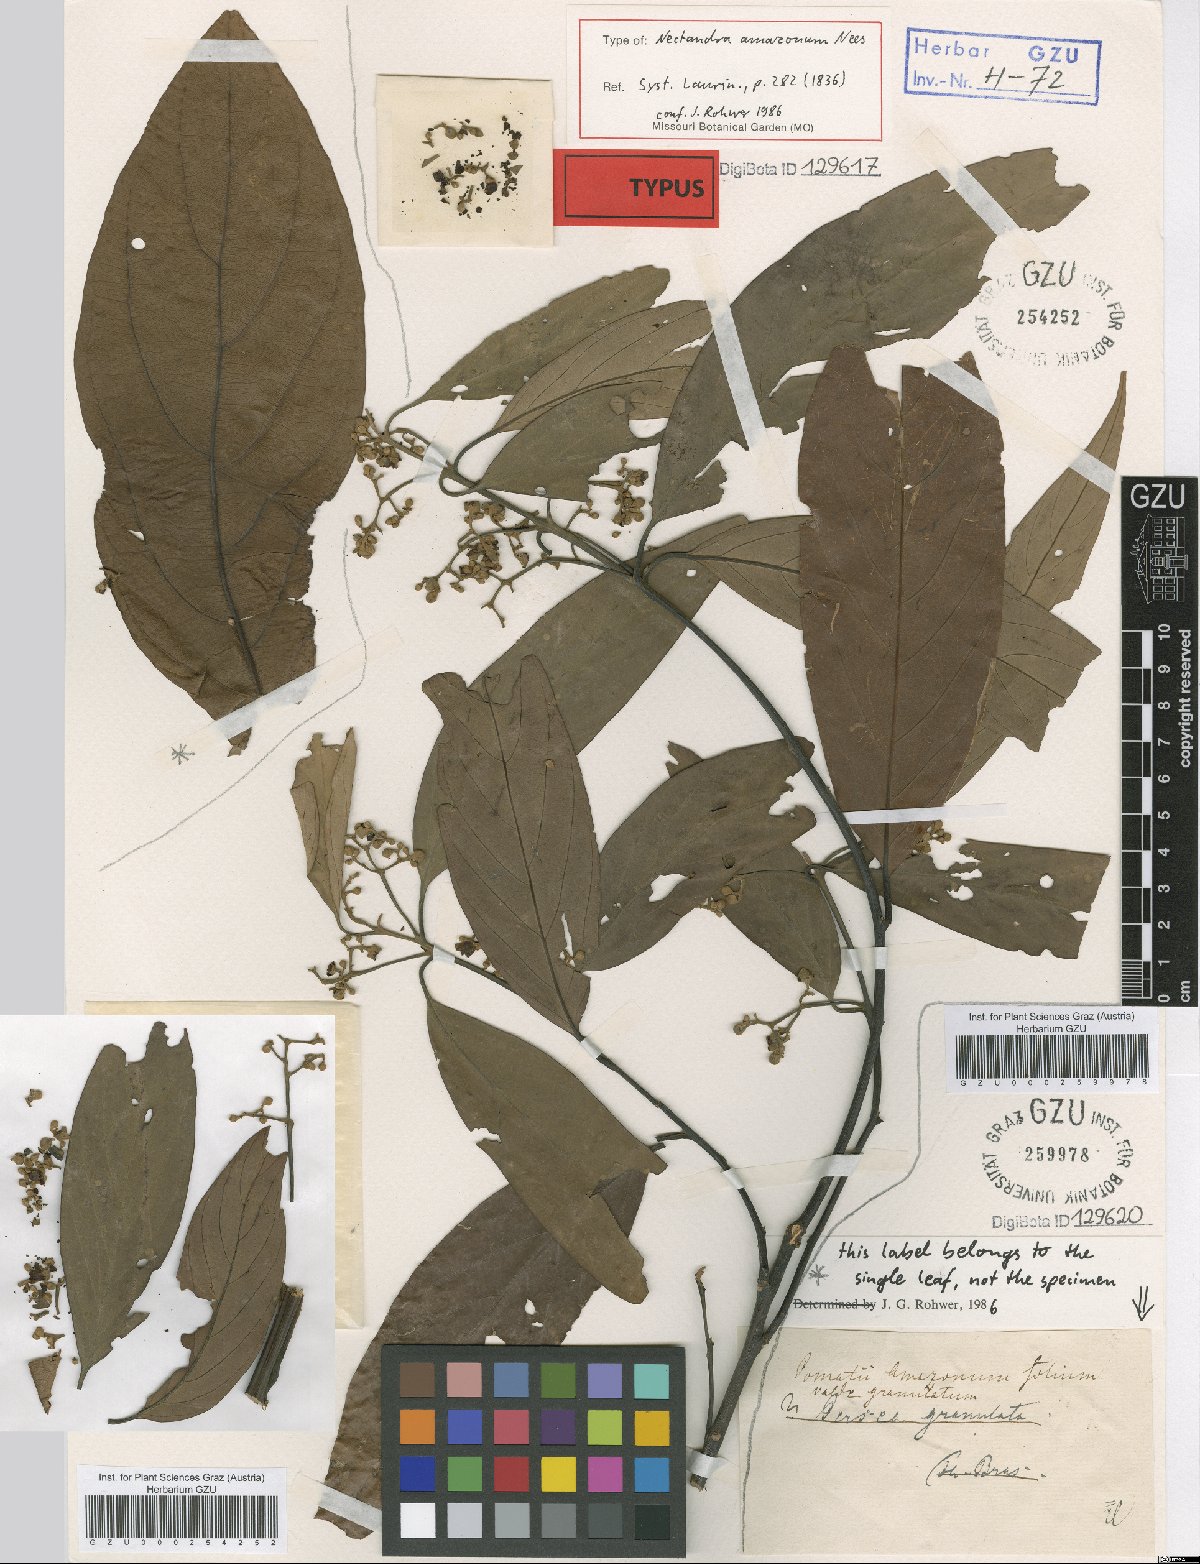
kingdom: Plantae
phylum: Tracheophyta
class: Magnoliopsida
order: Laurales
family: Lauraceae
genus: Nectandra
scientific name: Nectandra amazonum
